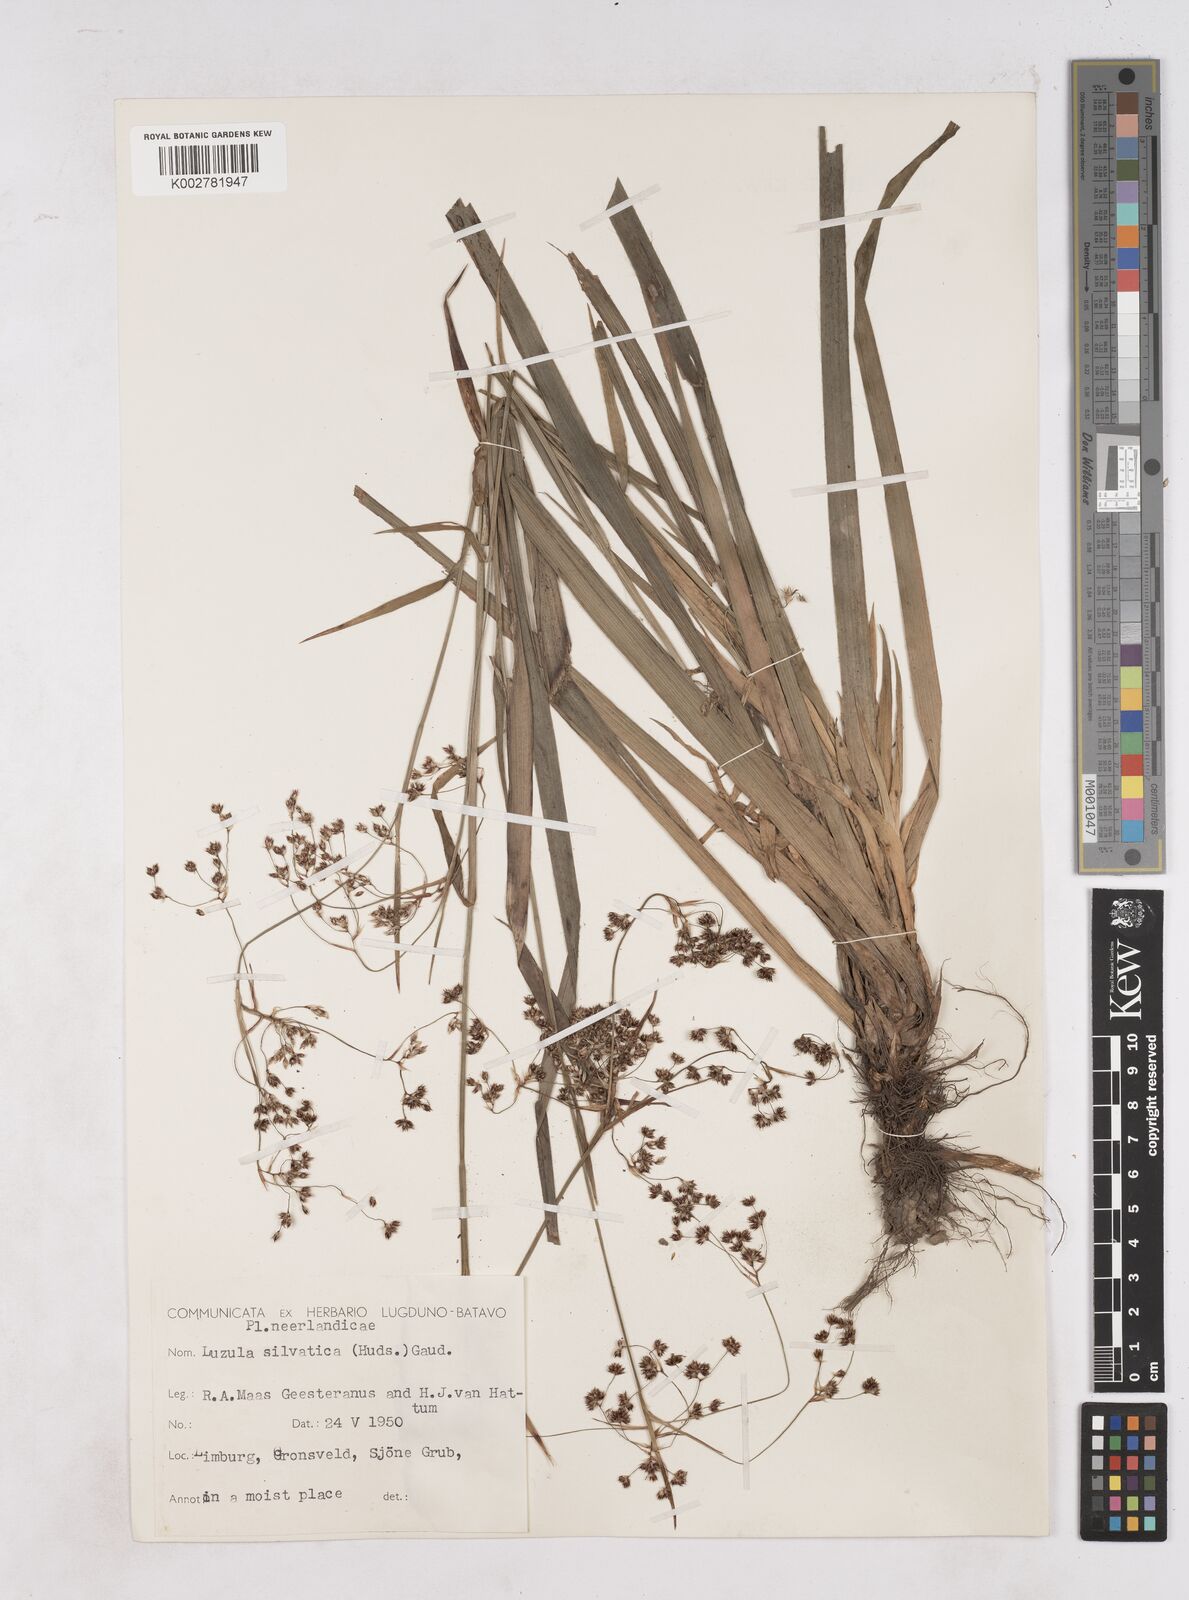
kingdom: Plantae
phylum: Tracheophyta
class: Liliopsida
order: Poales
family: Juncaceae
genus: Luzula
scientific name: Luzula sylvatica
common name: Great wood-rush
